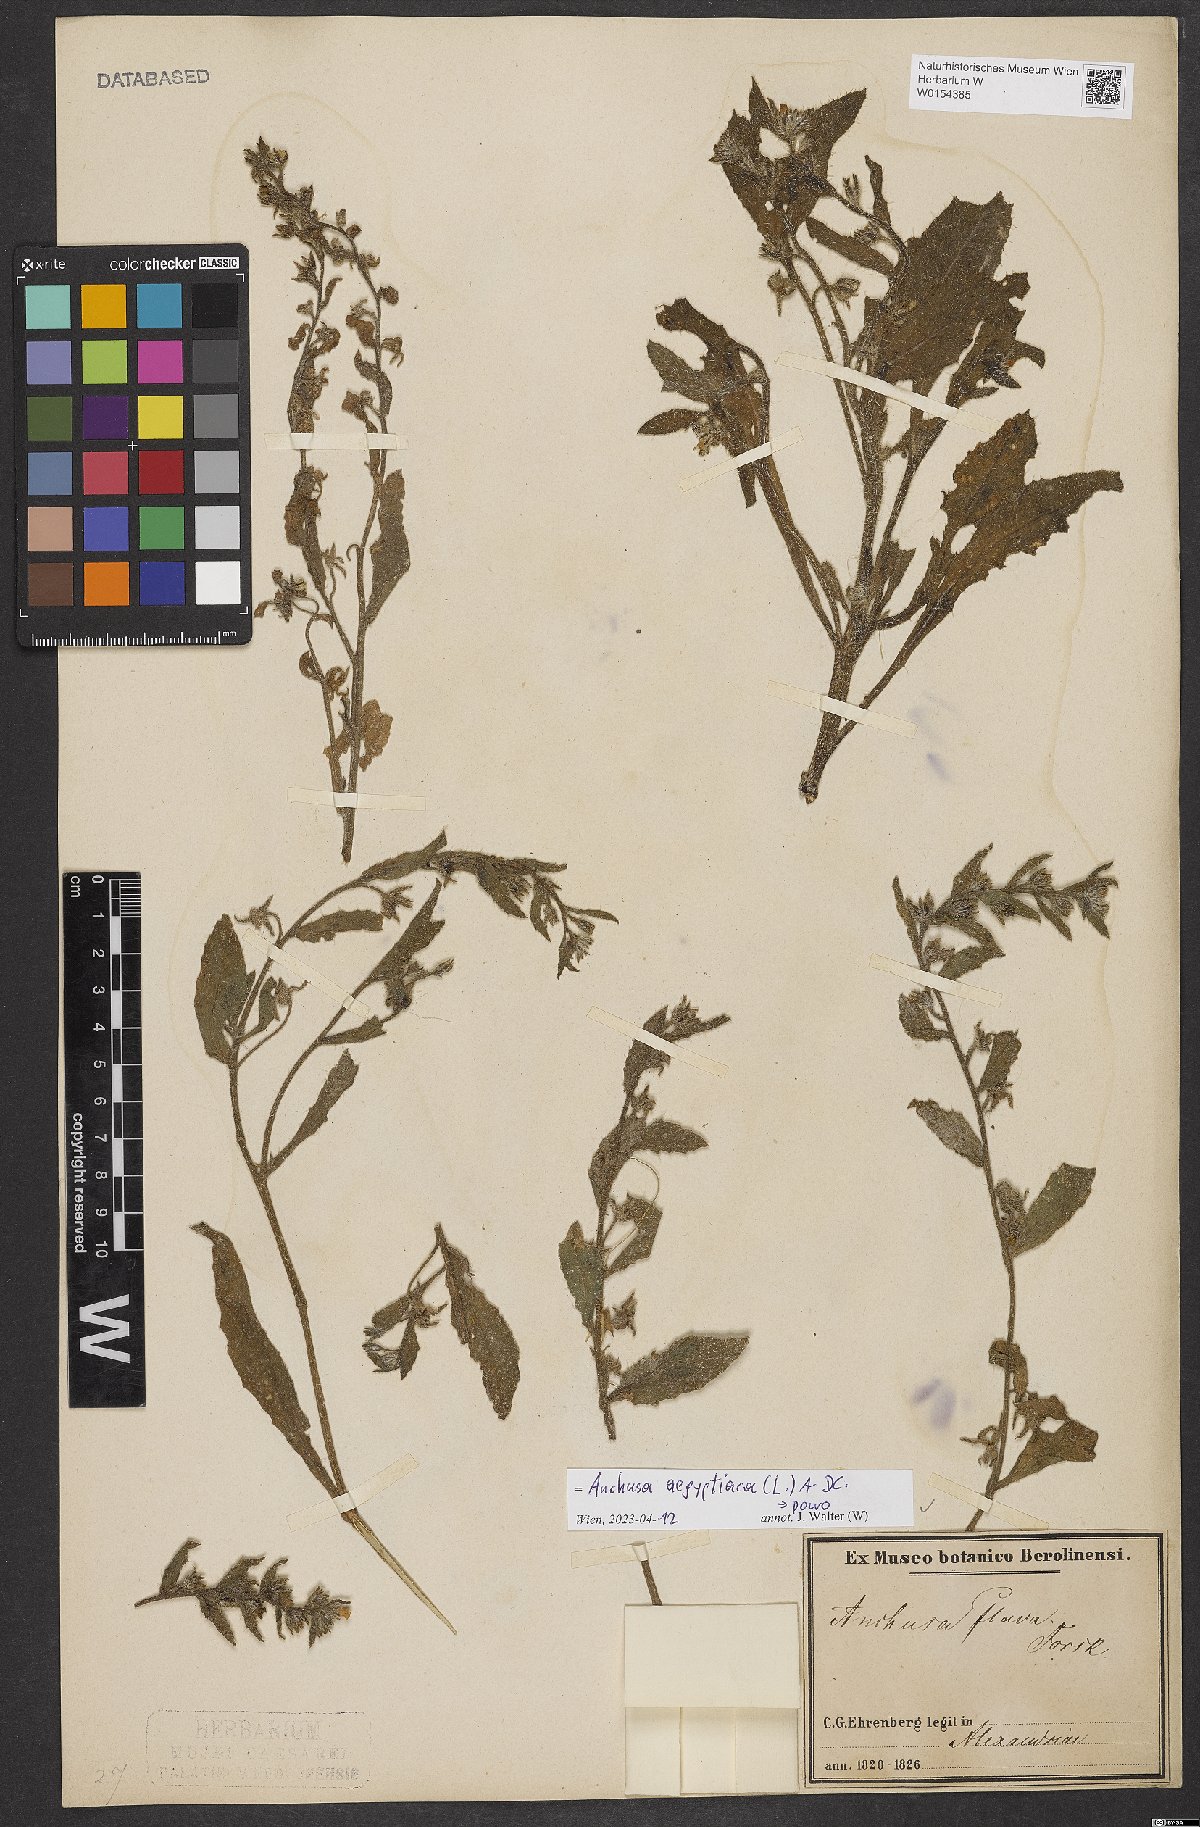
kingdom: Plantae
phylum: Tracheophyta
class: Magnoliopsida
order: Boraginales
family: Boraginaceae
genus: Lycopsis
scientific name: Lycopsis aegyptiaca
